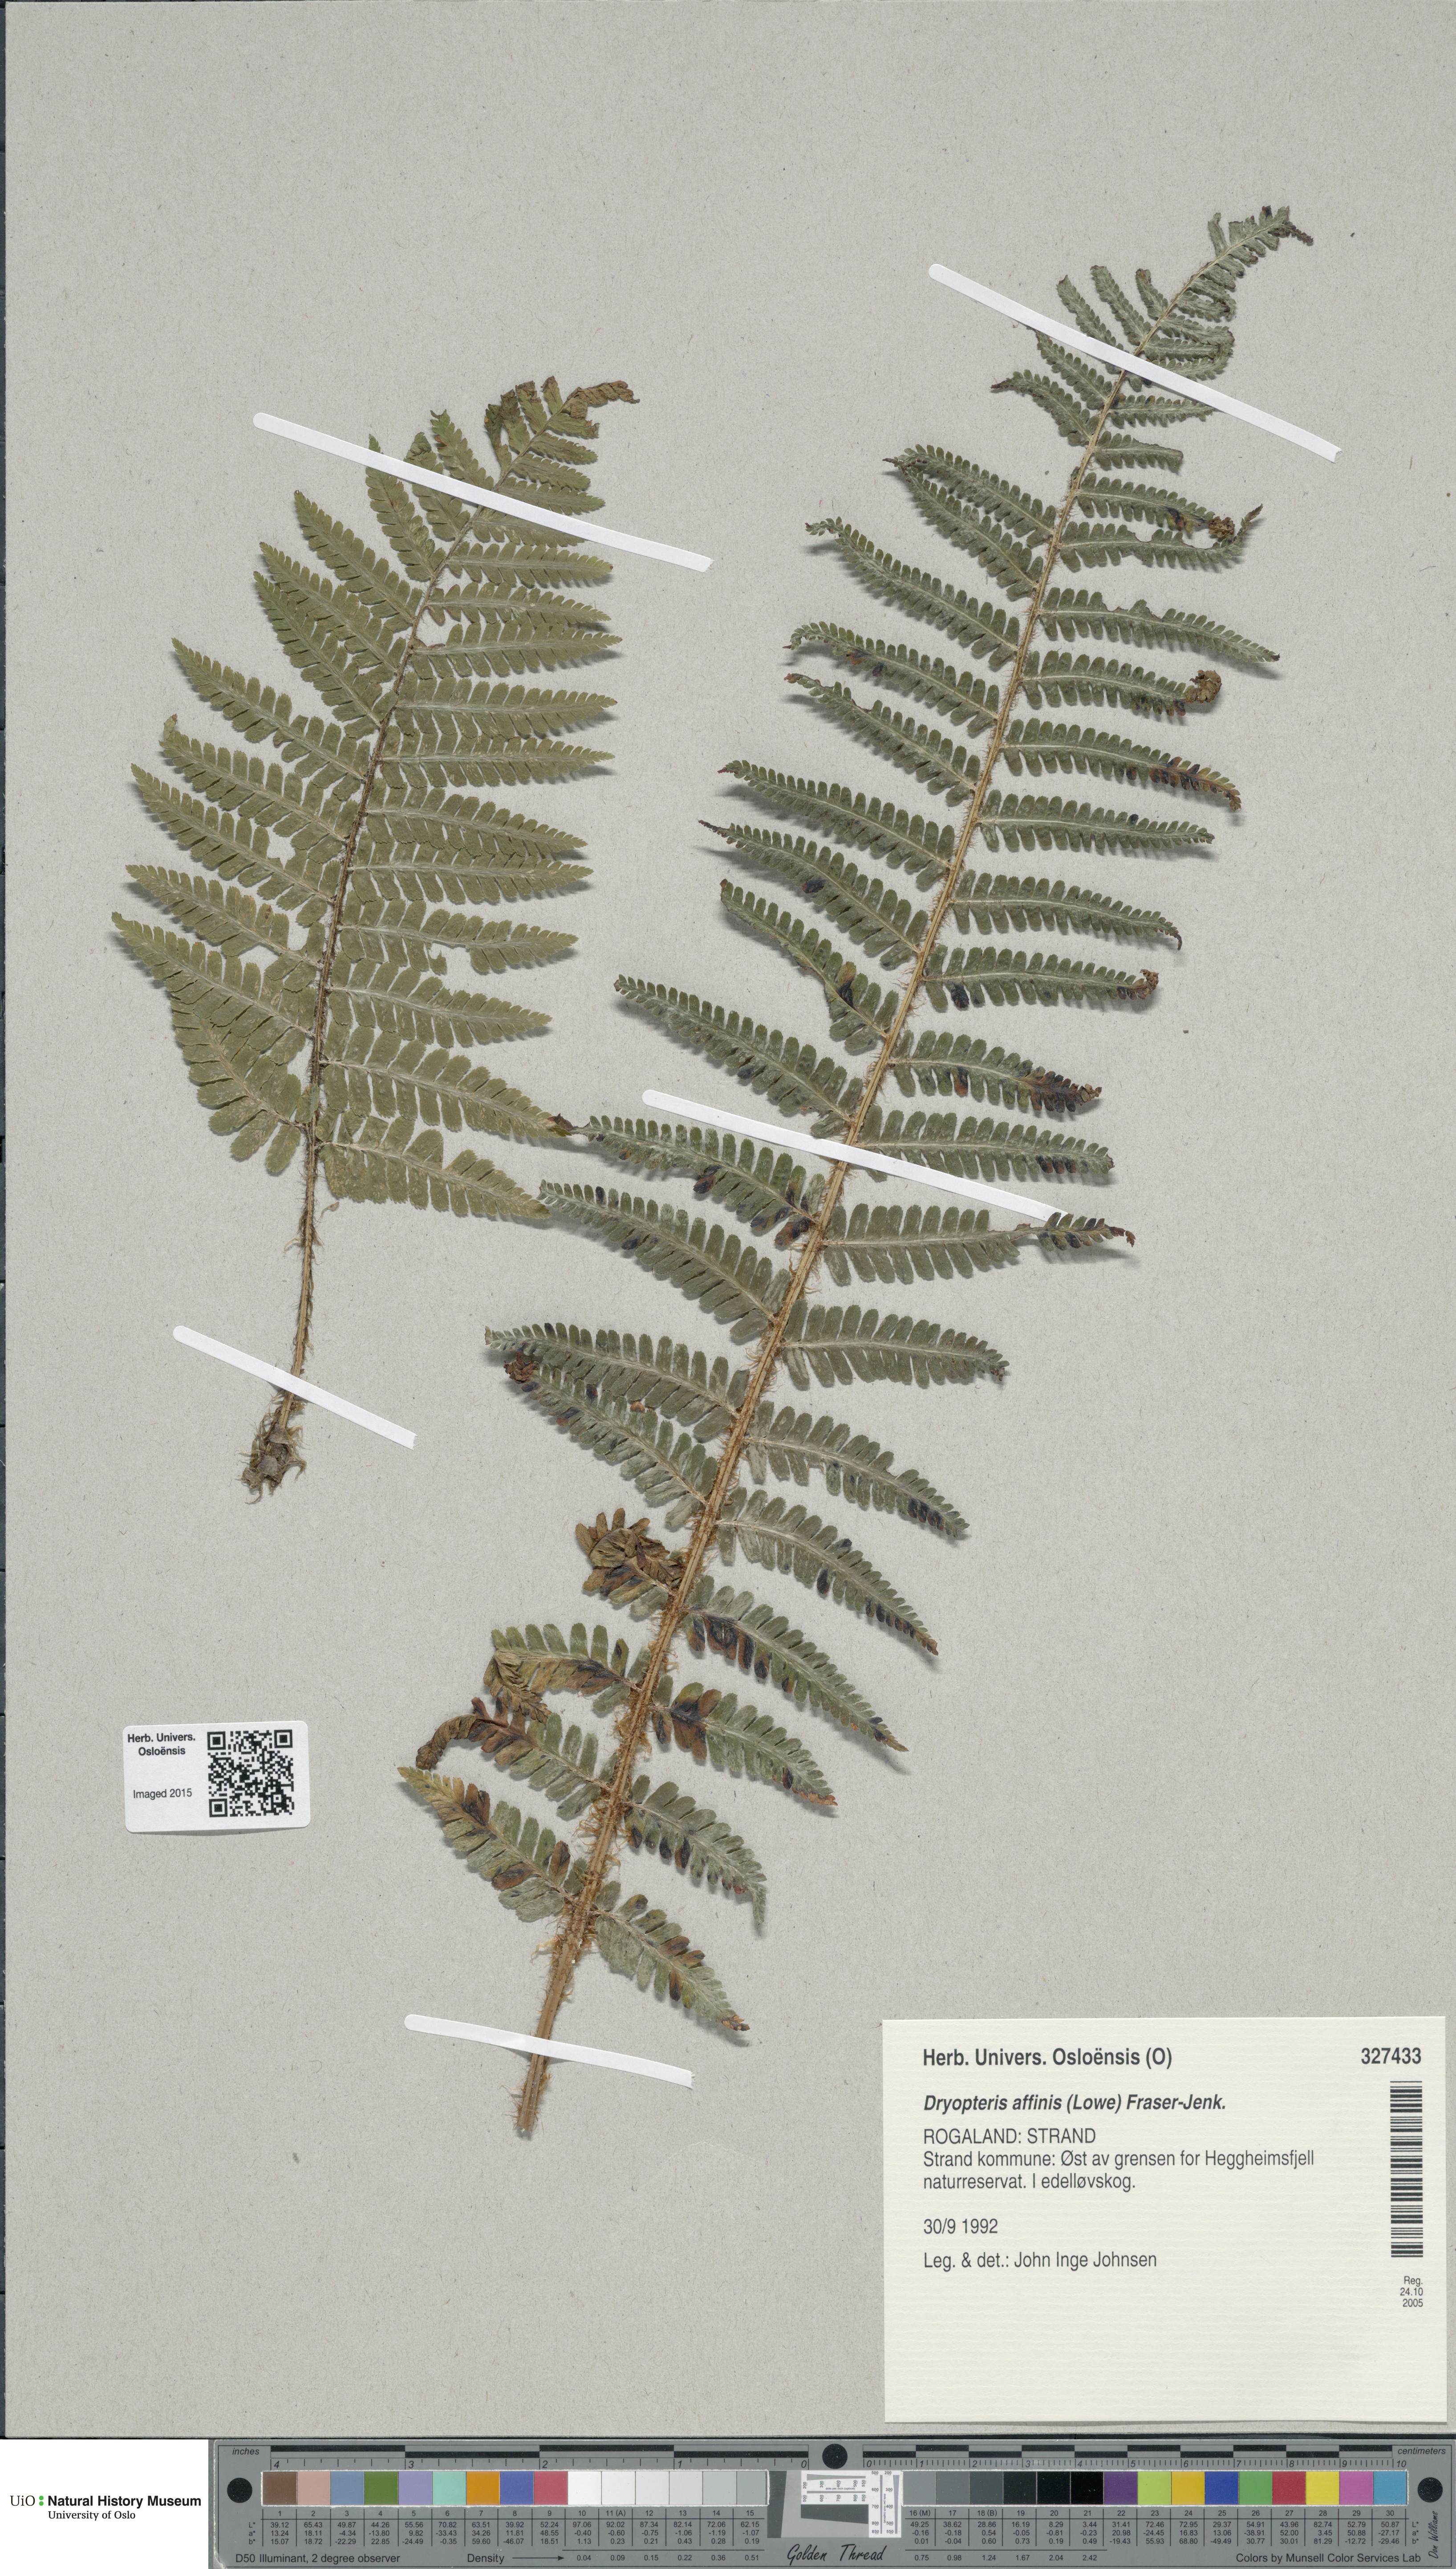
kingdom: Plantae
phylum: Tracheophyta
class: Polypodiopsida
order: Polypodiales
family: Dryopteridaceae
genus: Dryopteris
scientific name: Dryopteris affinis
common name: Scaly male fern
